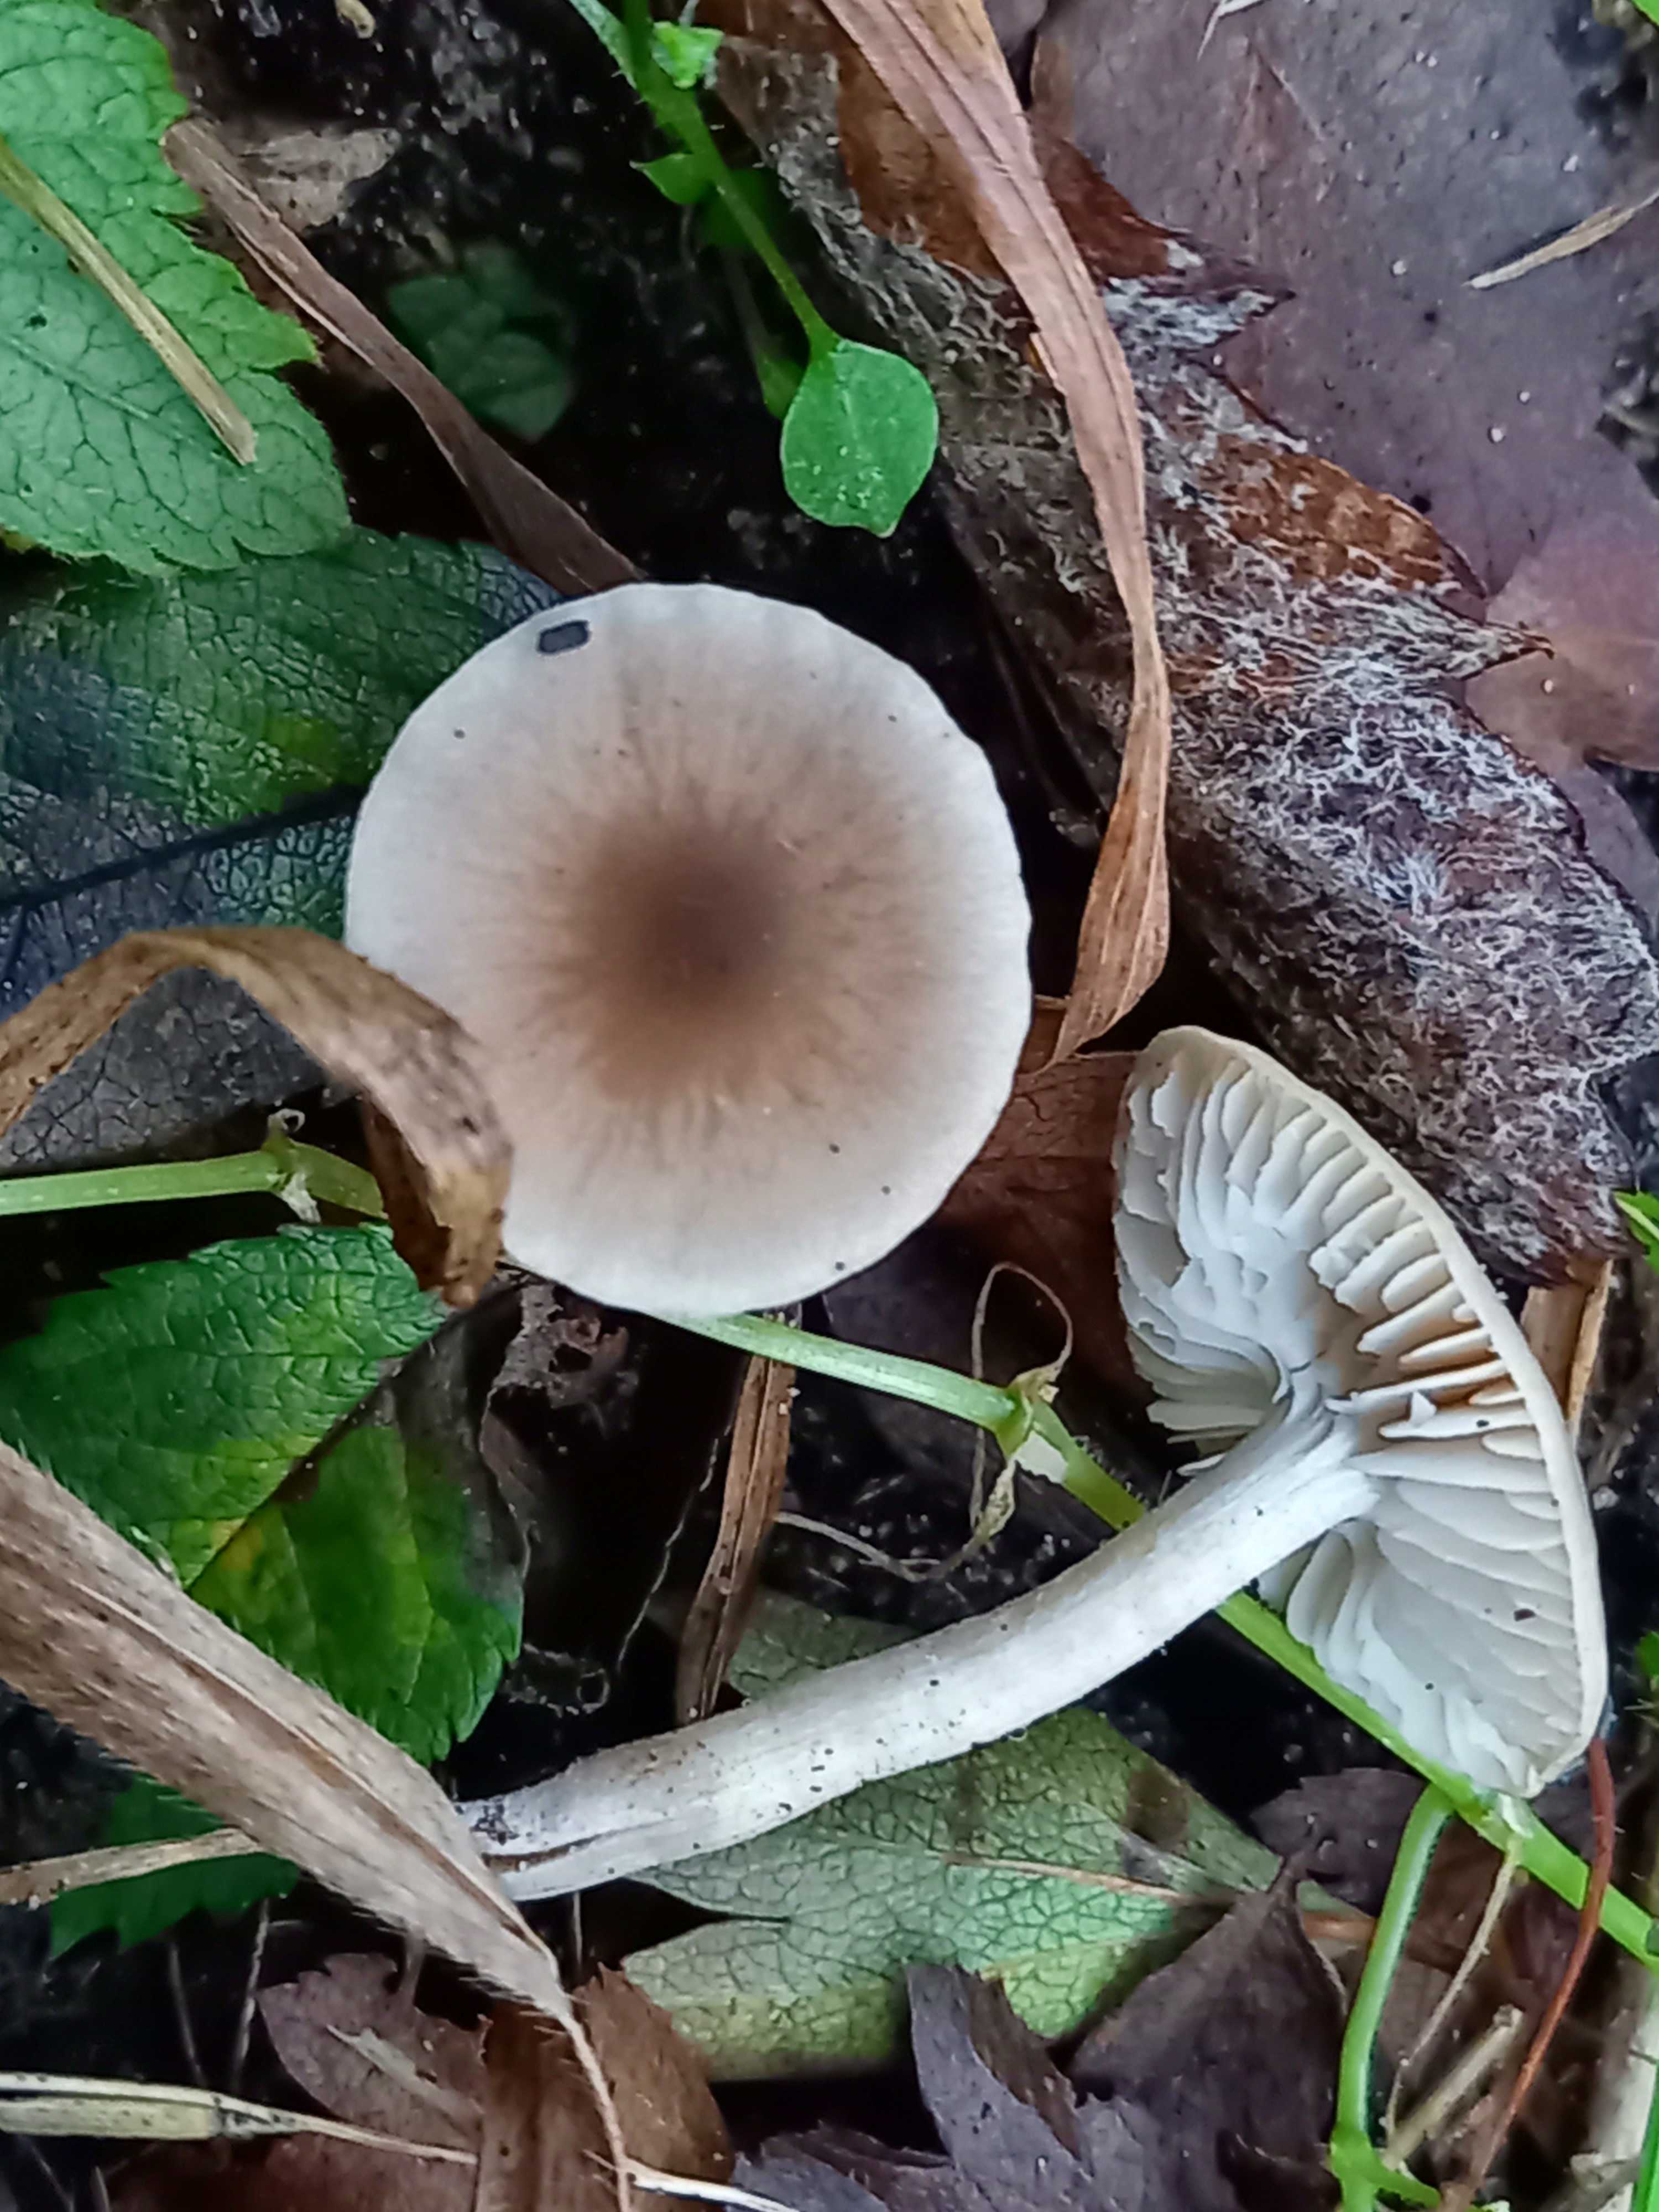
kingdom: Fungi
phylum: Basidiomycota
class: Agaricomycetes
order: Agaricales
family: Tricholomataceae
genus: Dermoloma
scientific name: Dermoloma cuneifolium
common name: eng-nonnehat
